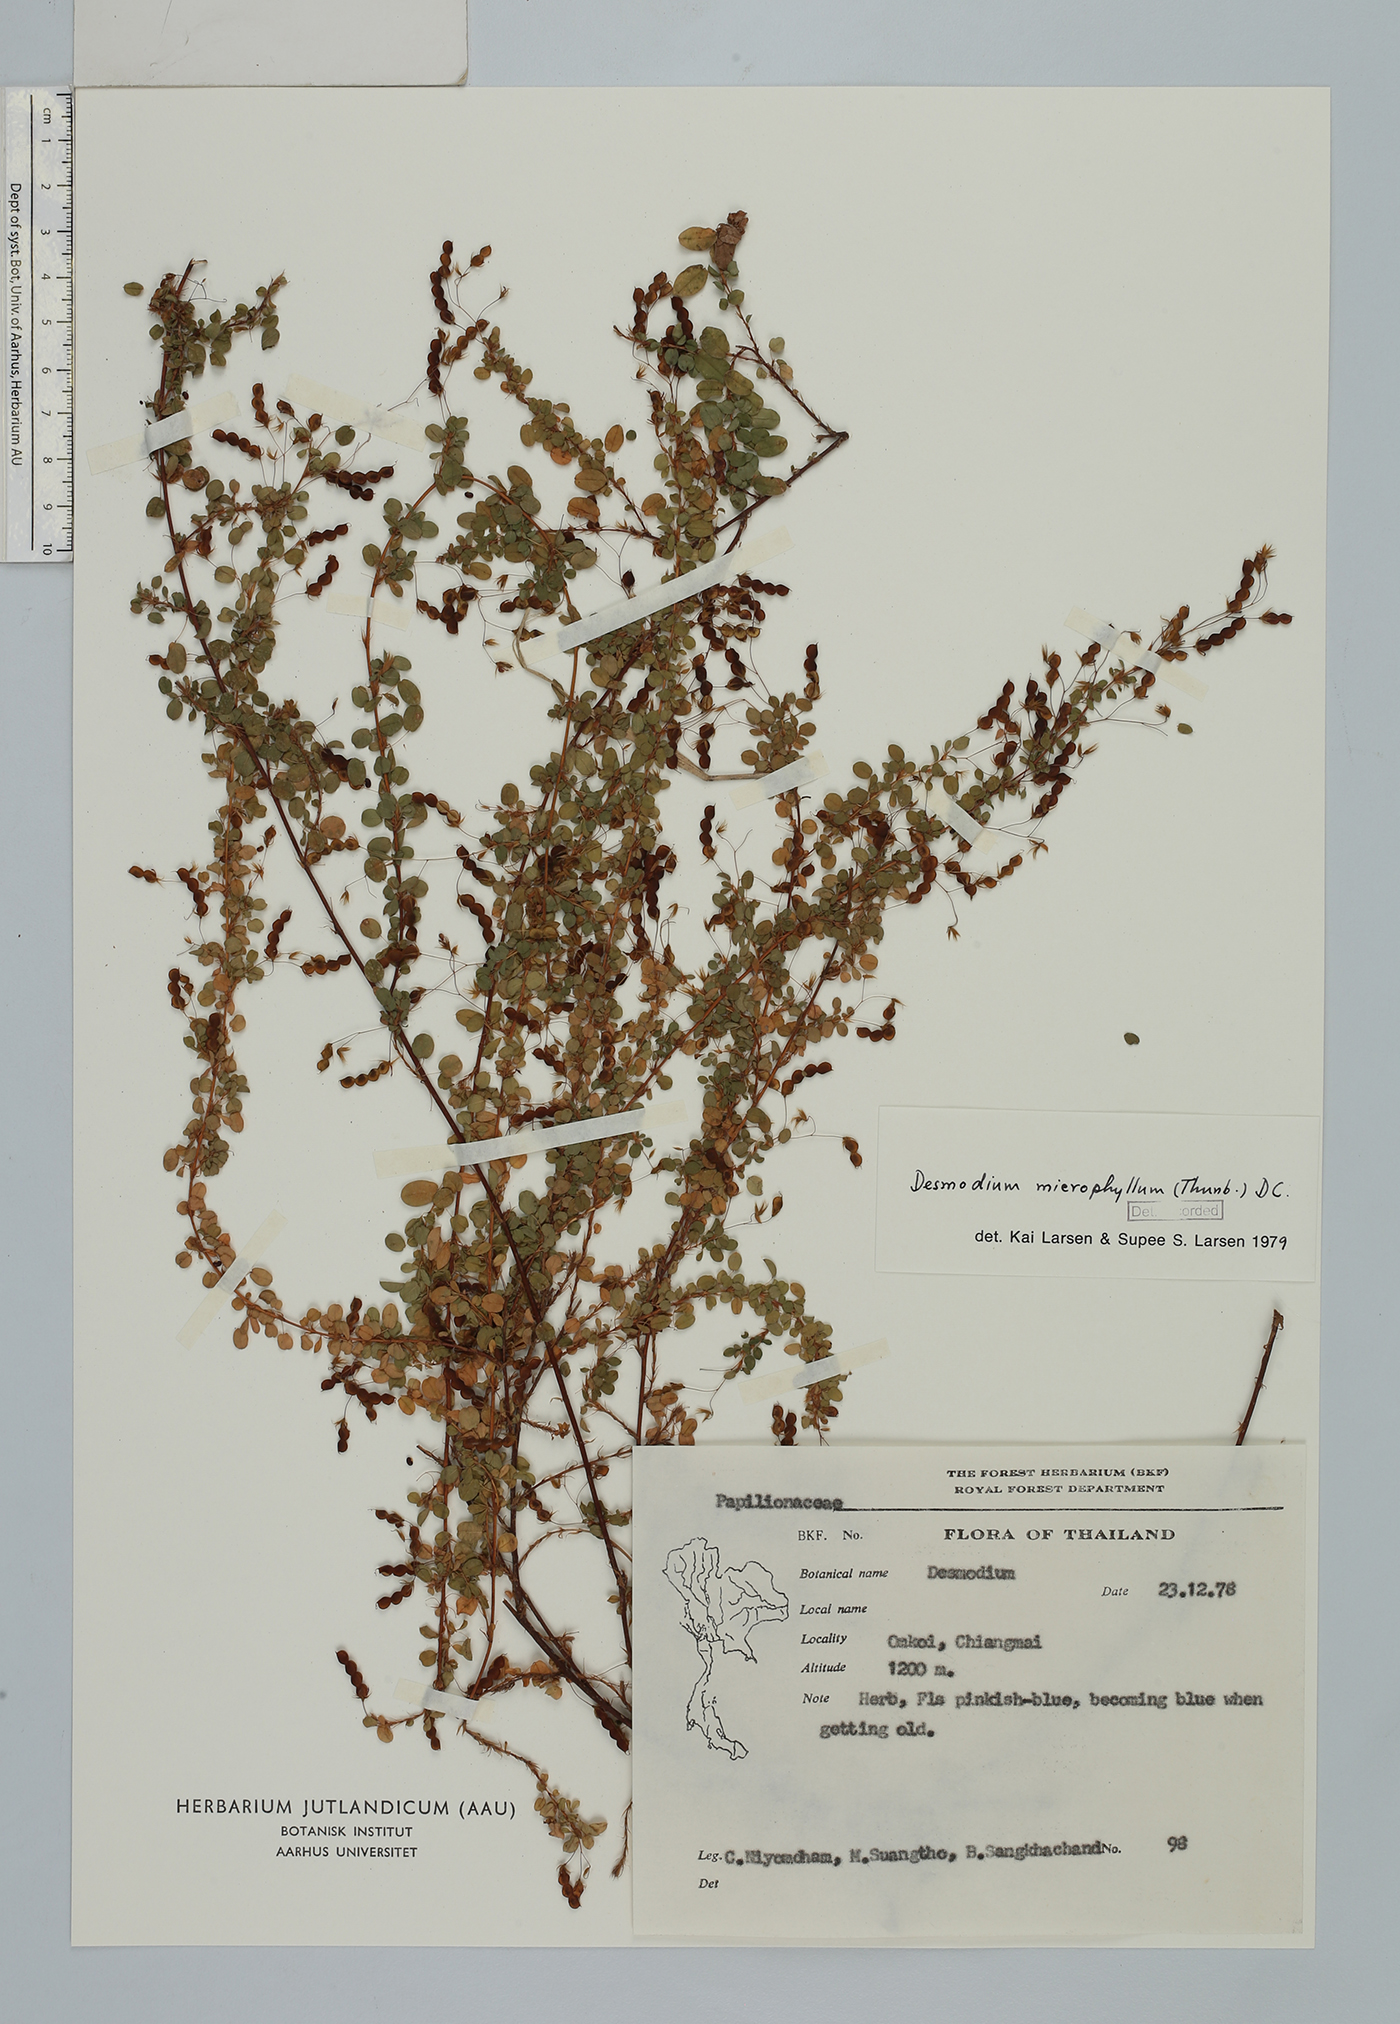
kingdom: Plantae
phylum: Tracheophyta
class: Magnoliopsida
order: Fabales
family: Fabaceae
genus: Leptodesmia
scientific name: Leptodesmia microphylla
